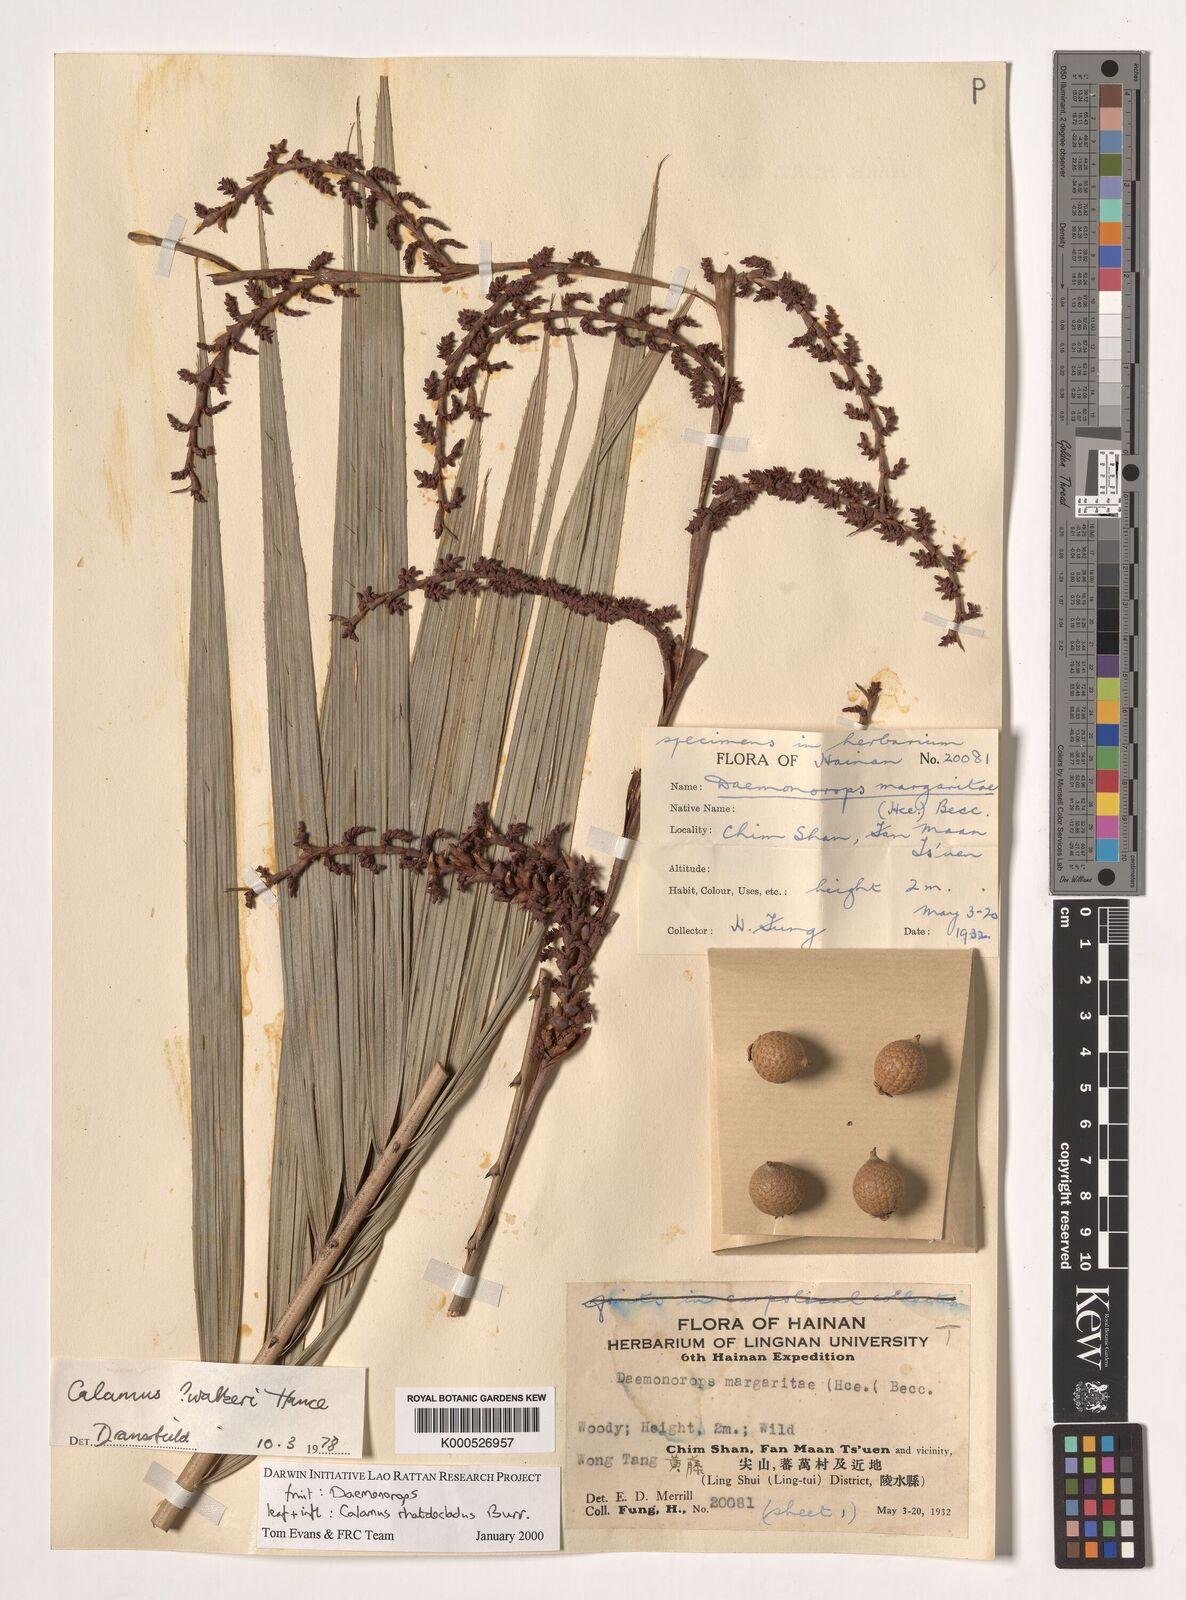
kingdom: Plantae
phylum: Tracheophyta
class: Liliopsida
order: Arecales
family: Arecaceae
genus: Calamus
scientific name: Calamus rhabdocladus
